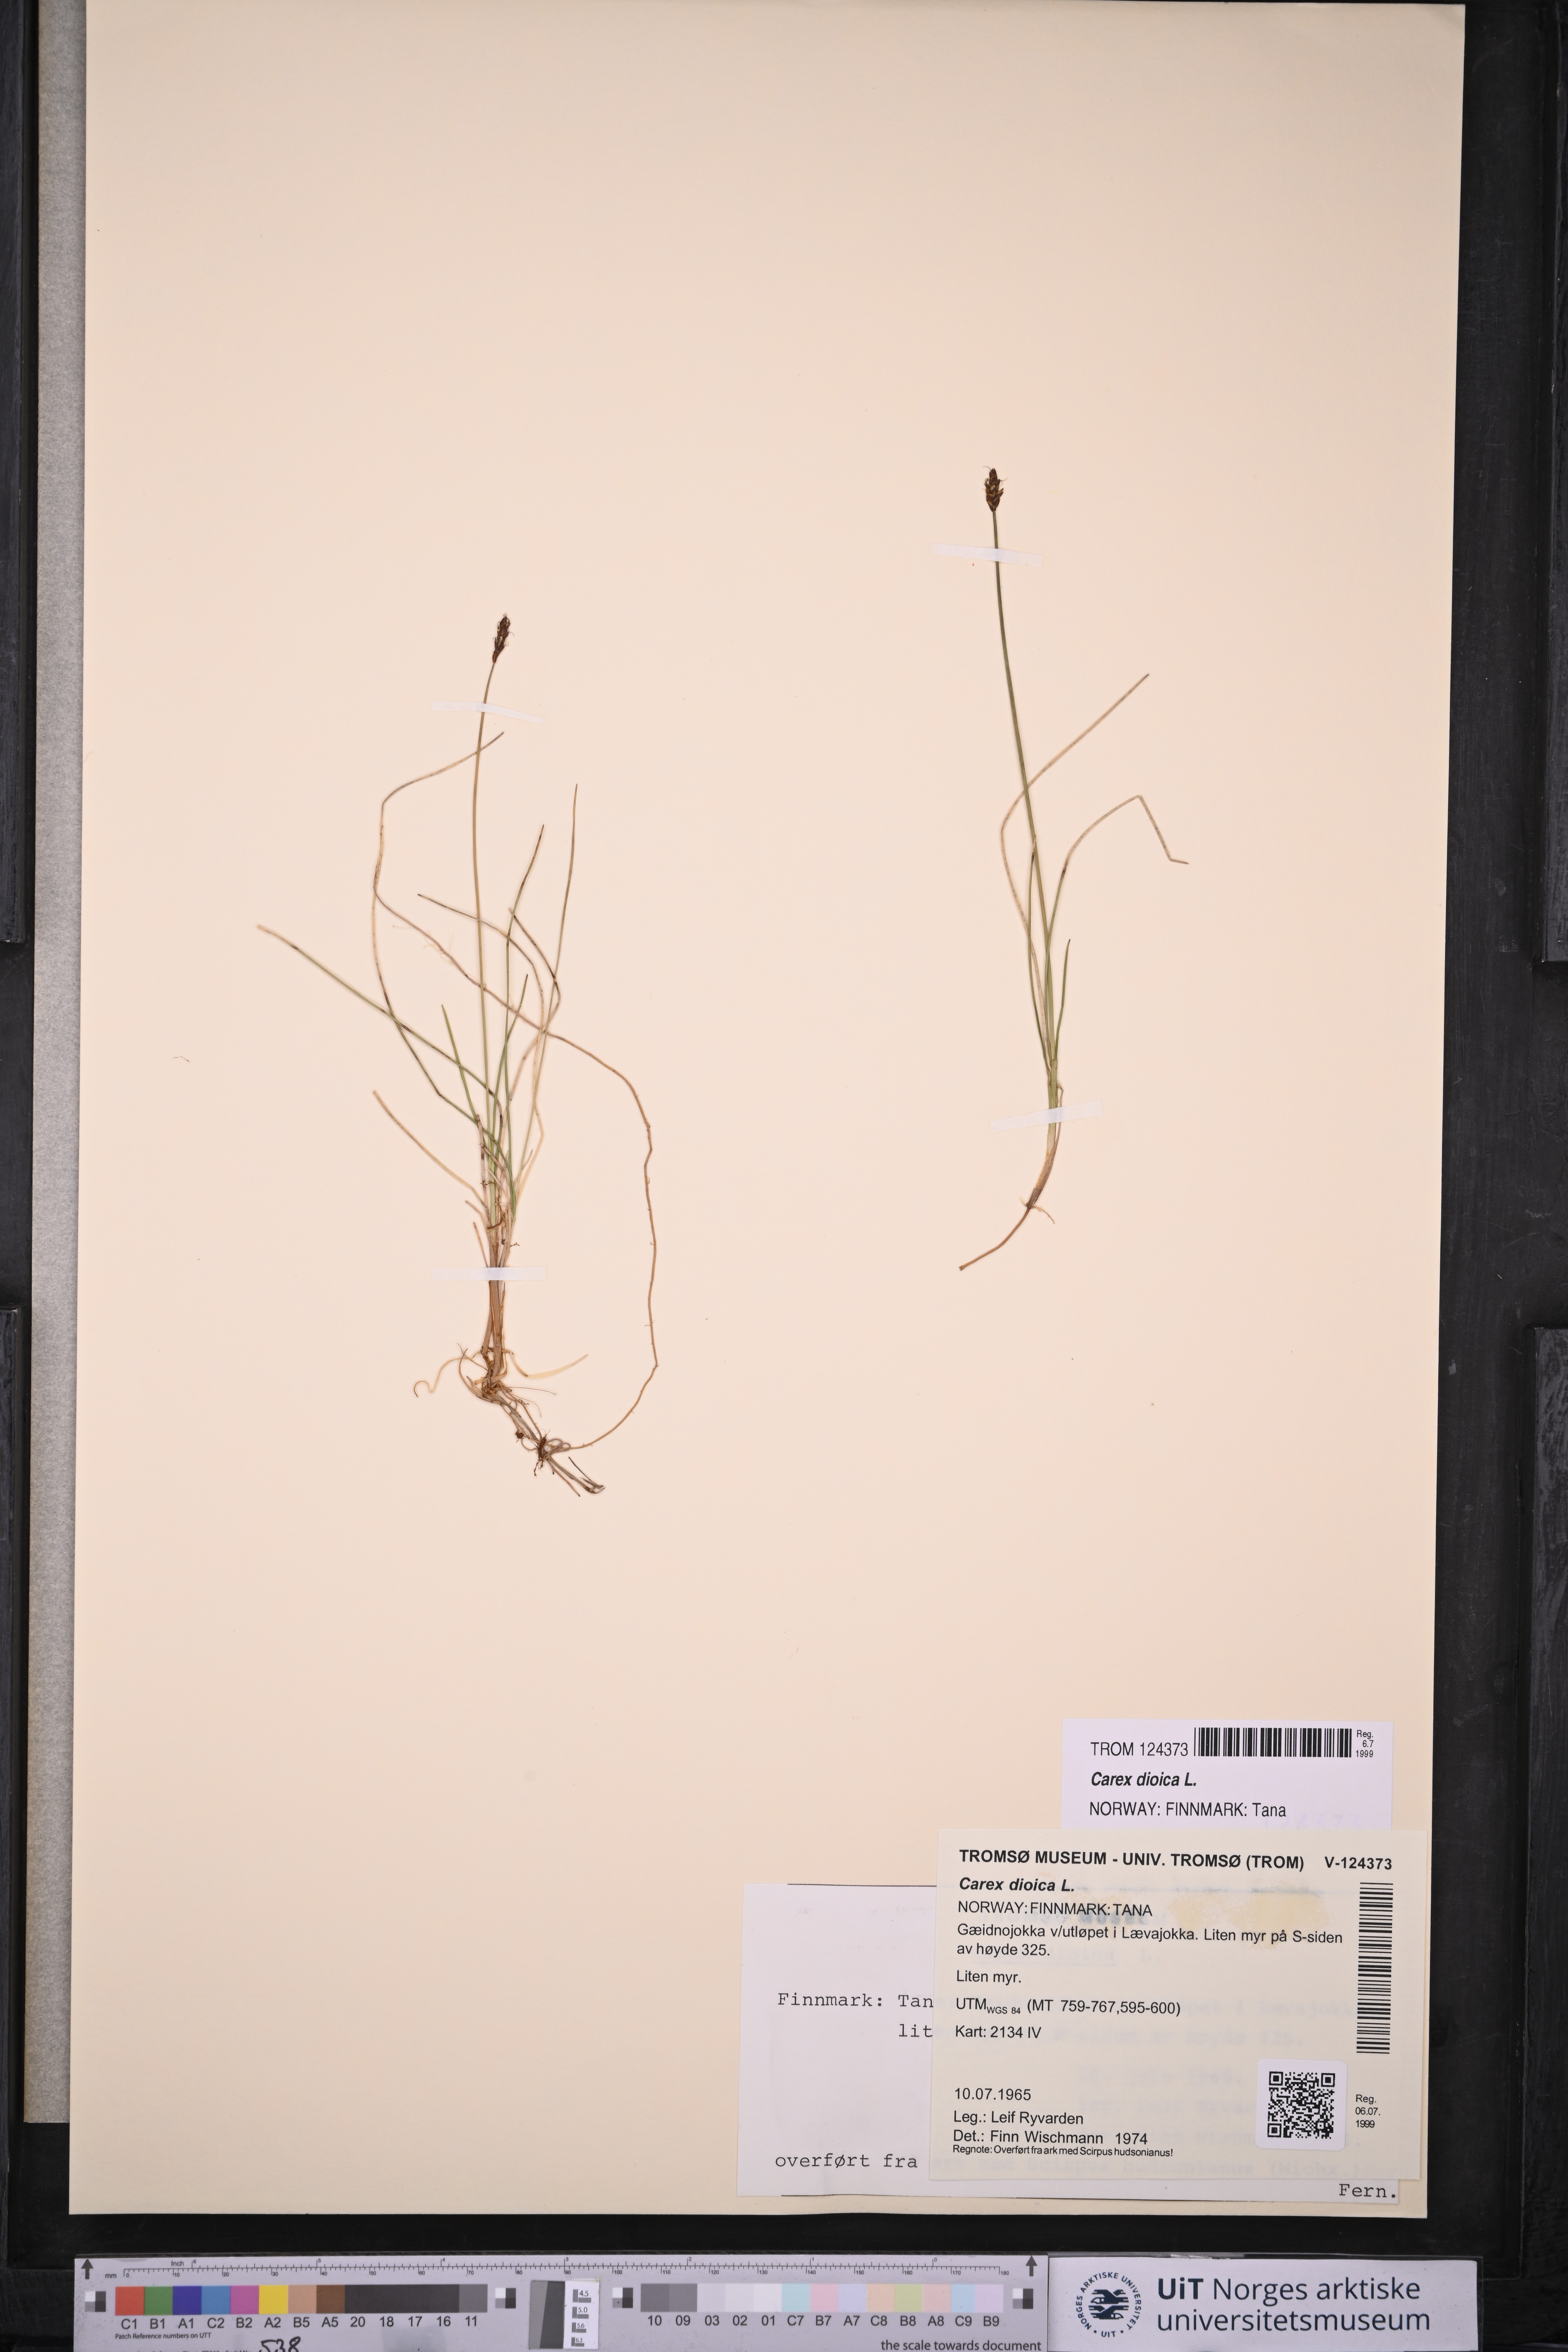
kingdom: Plantae
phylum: Tracheophyta
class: Liliopsida
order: Poales
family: Cyperaceae
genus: Carex
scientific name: Carex dioica
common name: Dioecious sedge
